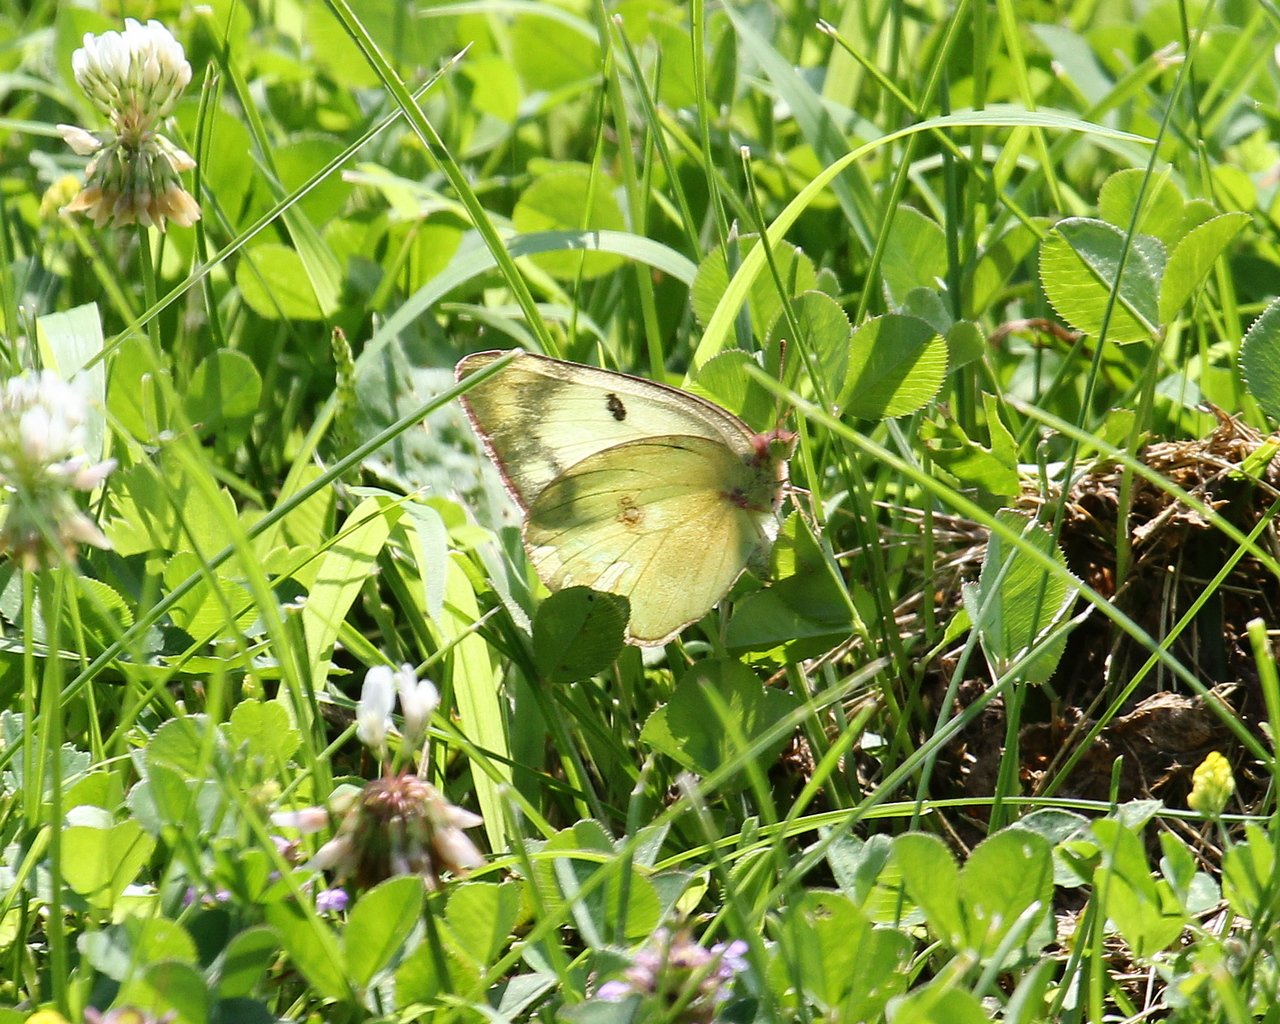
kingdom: Animalia
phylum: Arthropoda
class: Insecta
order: Lepidoptera
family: Pieridae
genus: Colias
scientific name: Colias philodice
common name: Clouded Sulphur
